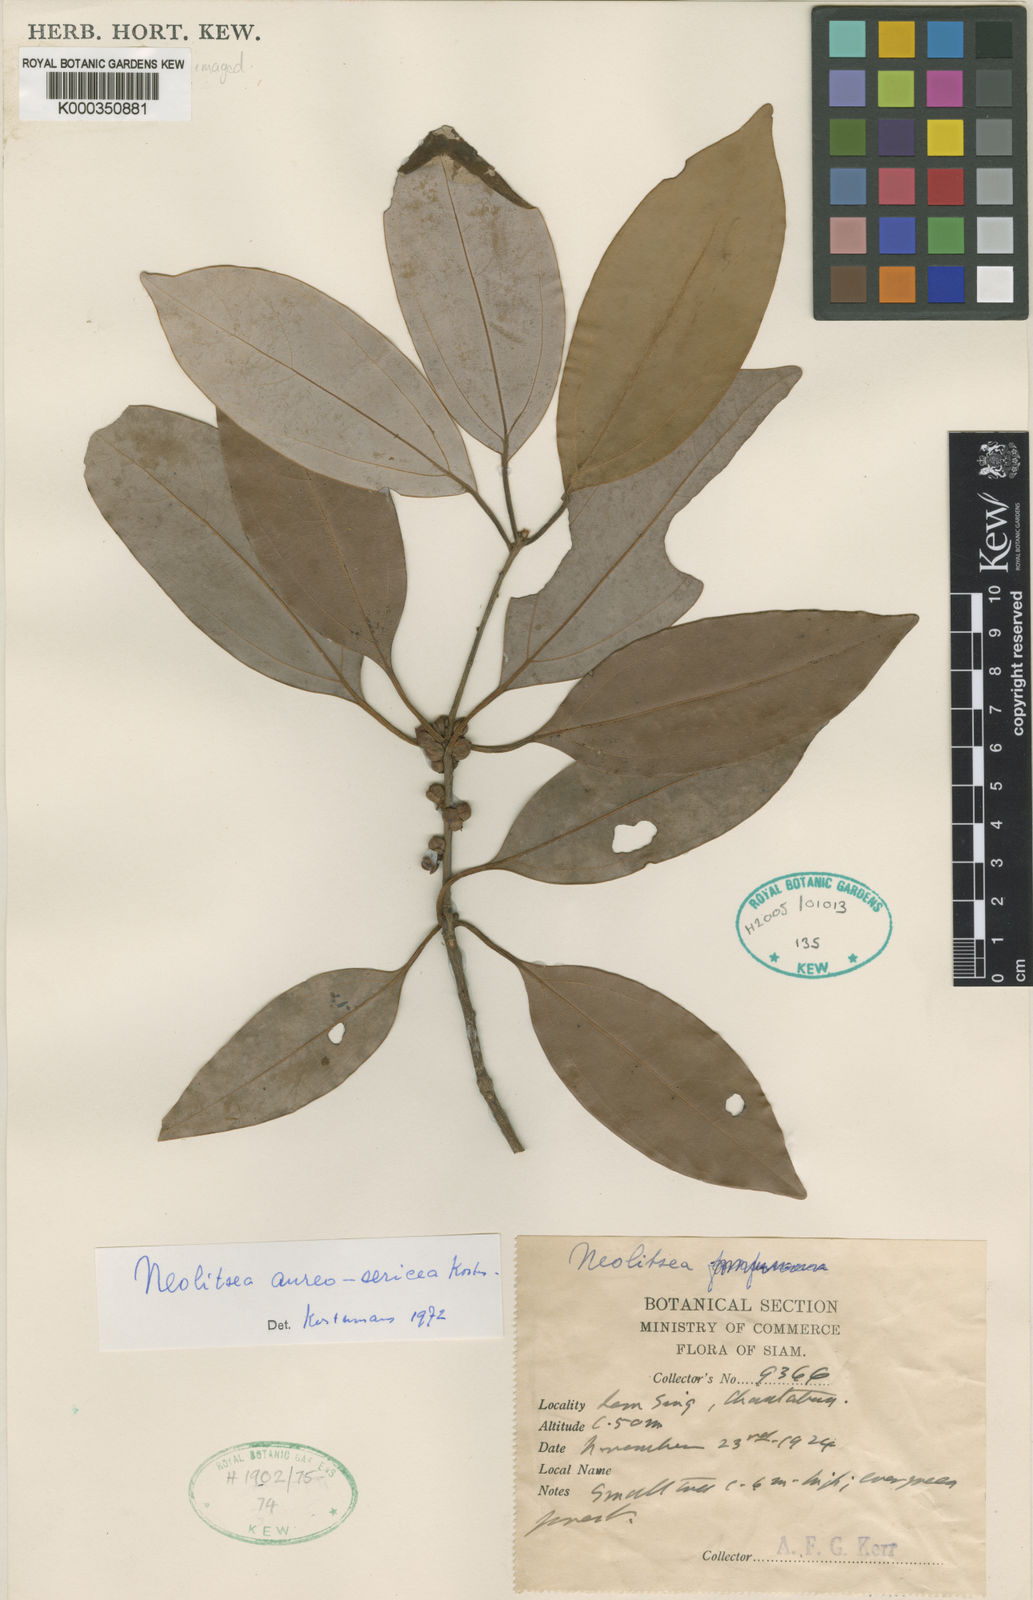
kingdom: Plantae
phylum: Tracheophyta
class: Magnoliopsida
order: Laurales
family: Lauraceae
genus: Neolitsea
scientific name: Neolitsea aureosericea
